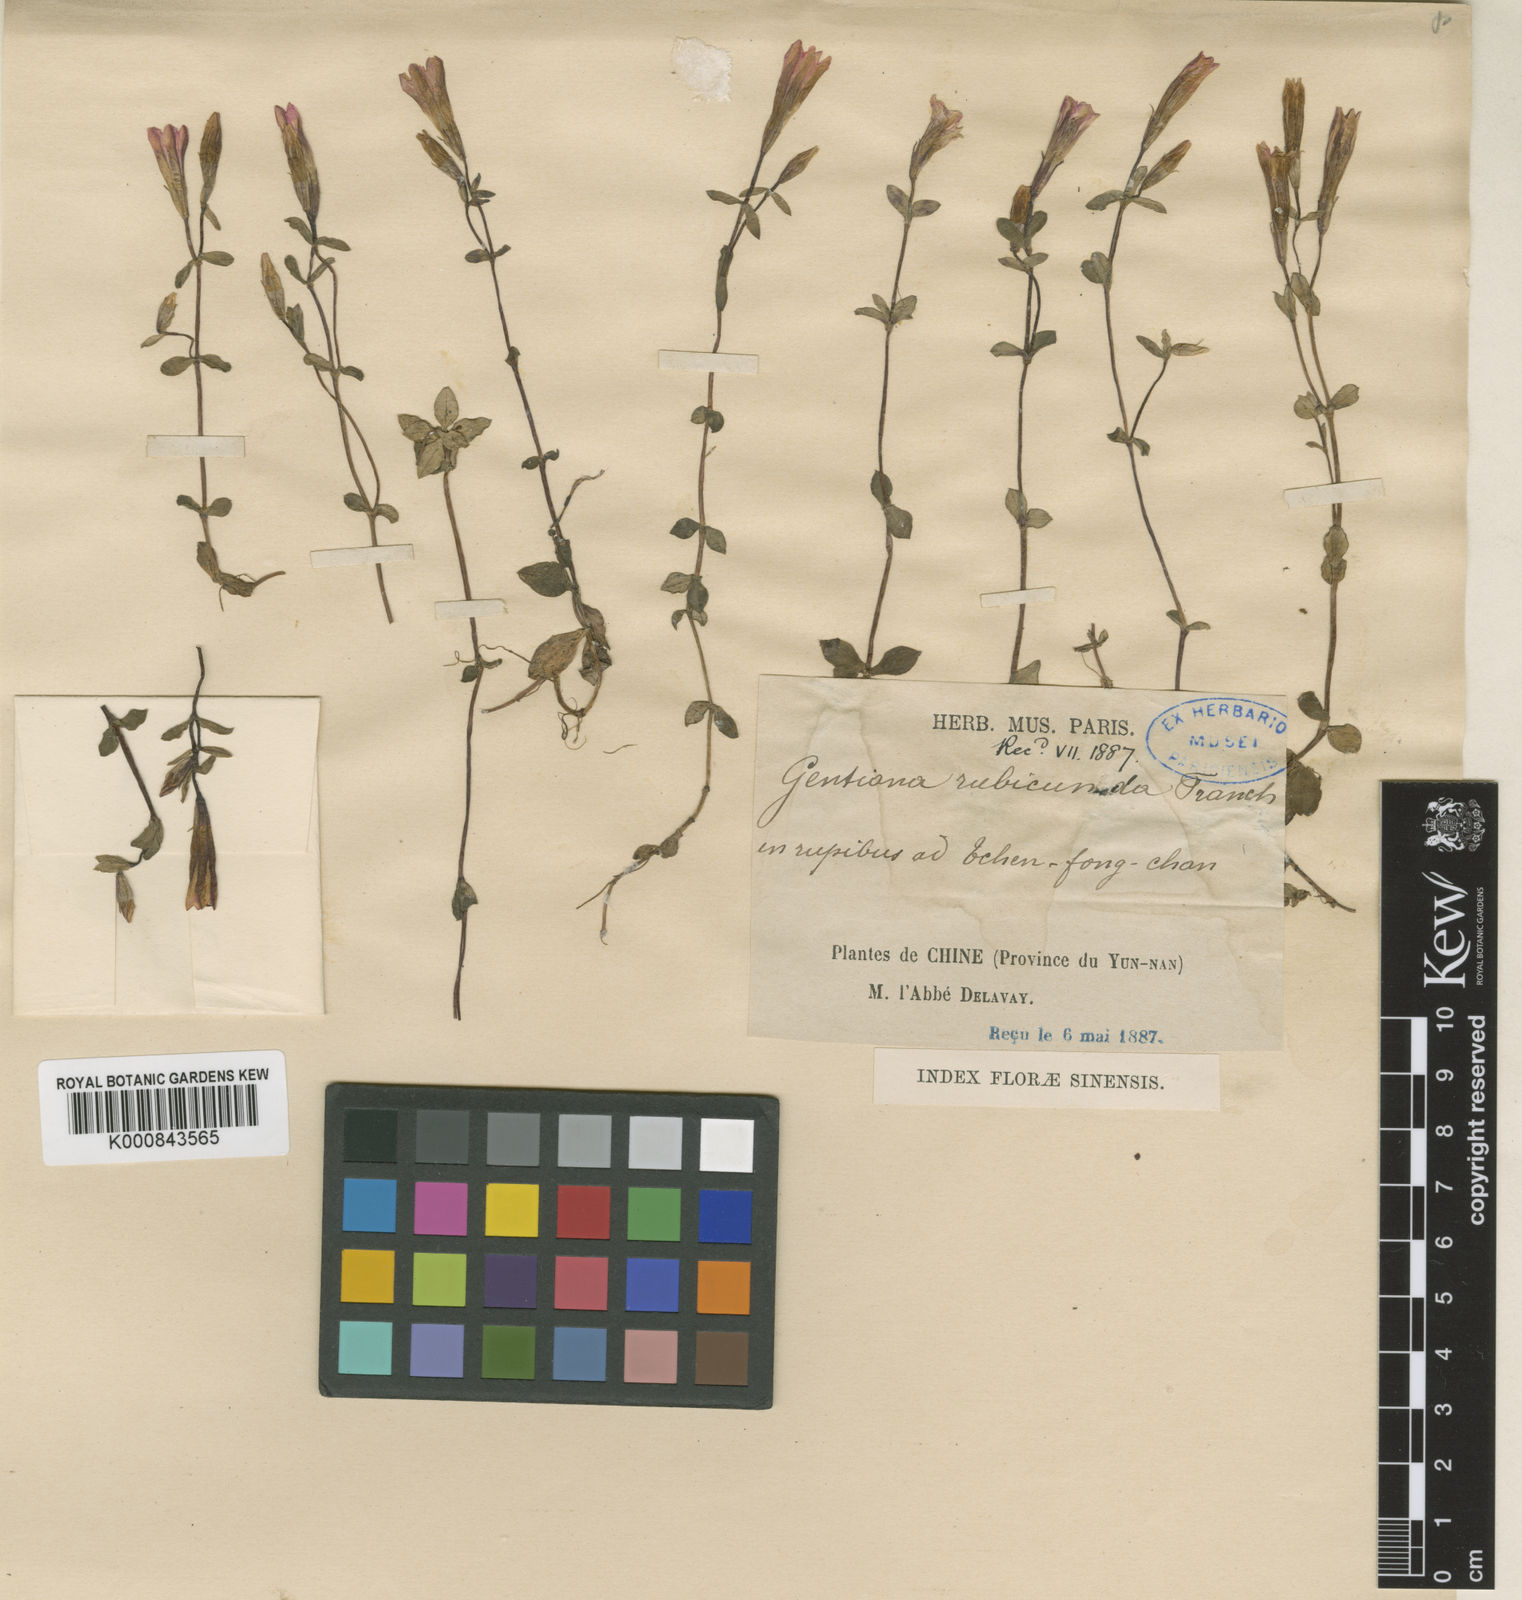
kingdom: Plantae
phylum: Tracheophyta
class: Magnoliopsida
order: Gentianales
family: Gentianaceae
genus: Gentiana
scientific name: Gentiana rubicunda
